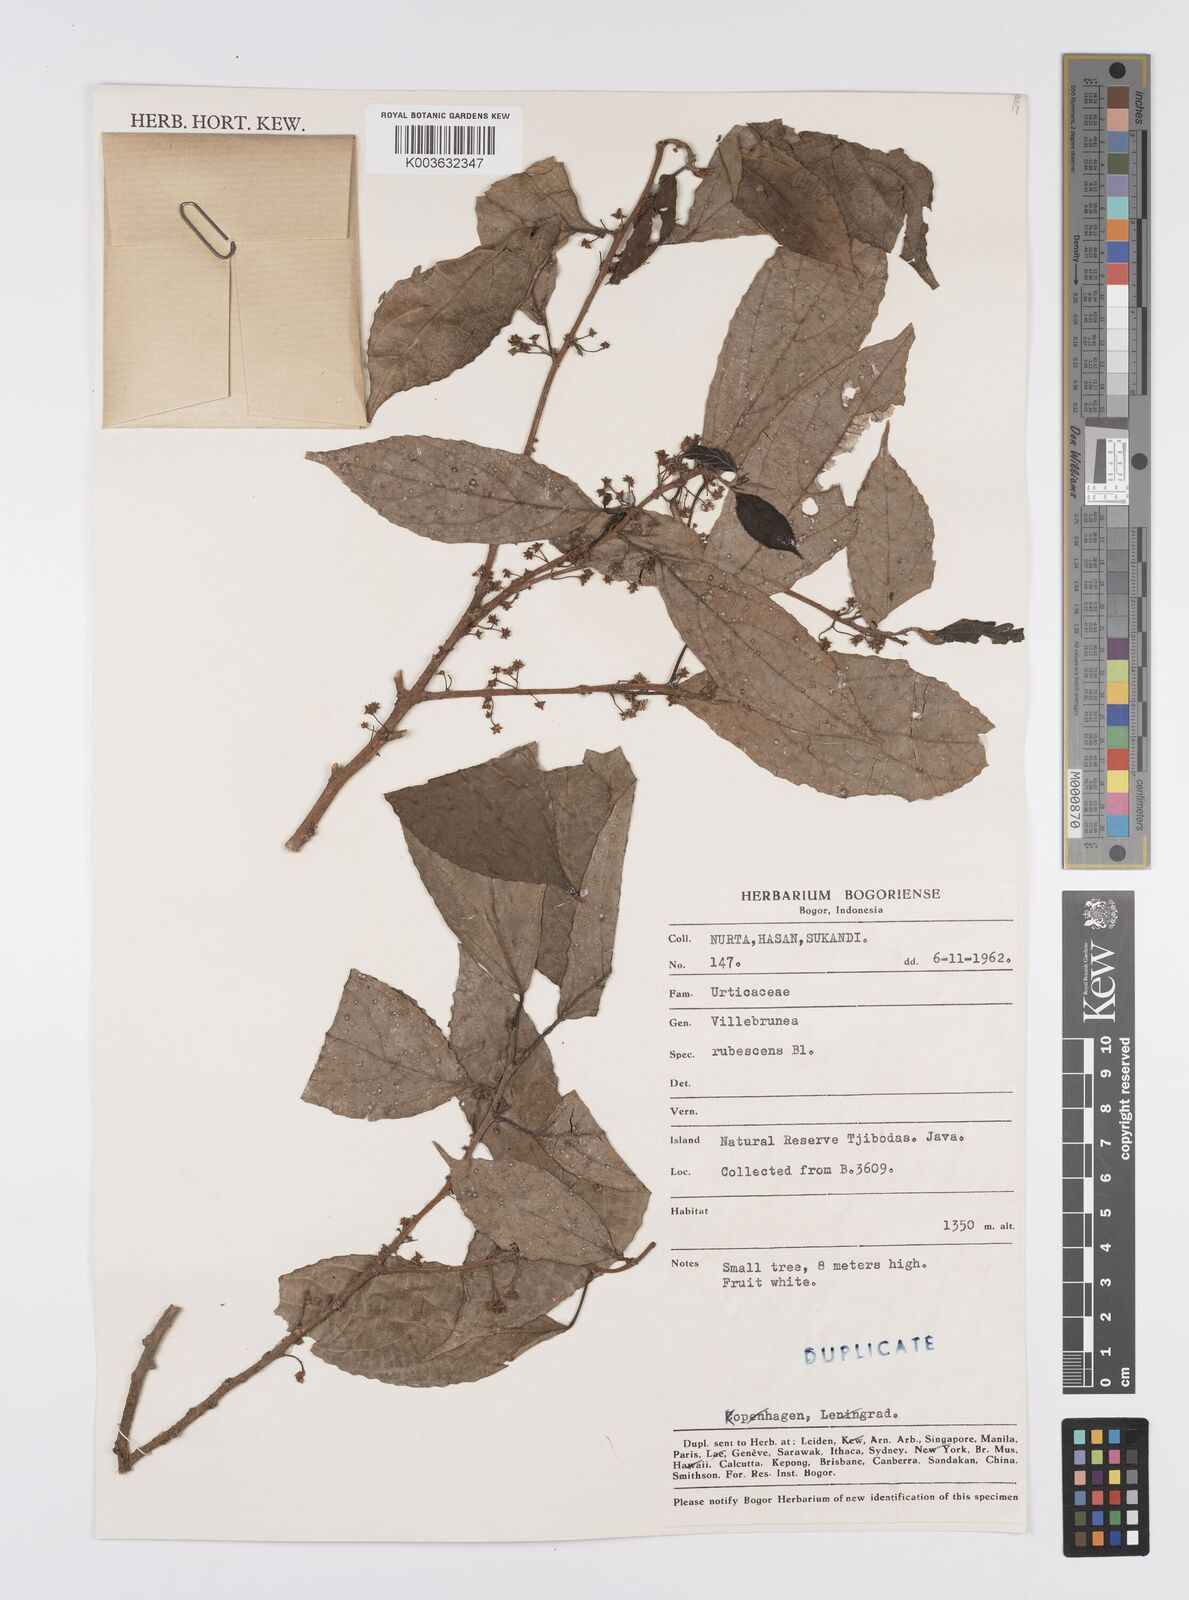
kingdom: Plantae
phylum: Tracheophyta
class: Magnoliopsida
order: Rosales
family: Urticaceae
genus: Oreocnide
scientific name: Oreocnide rubescens
